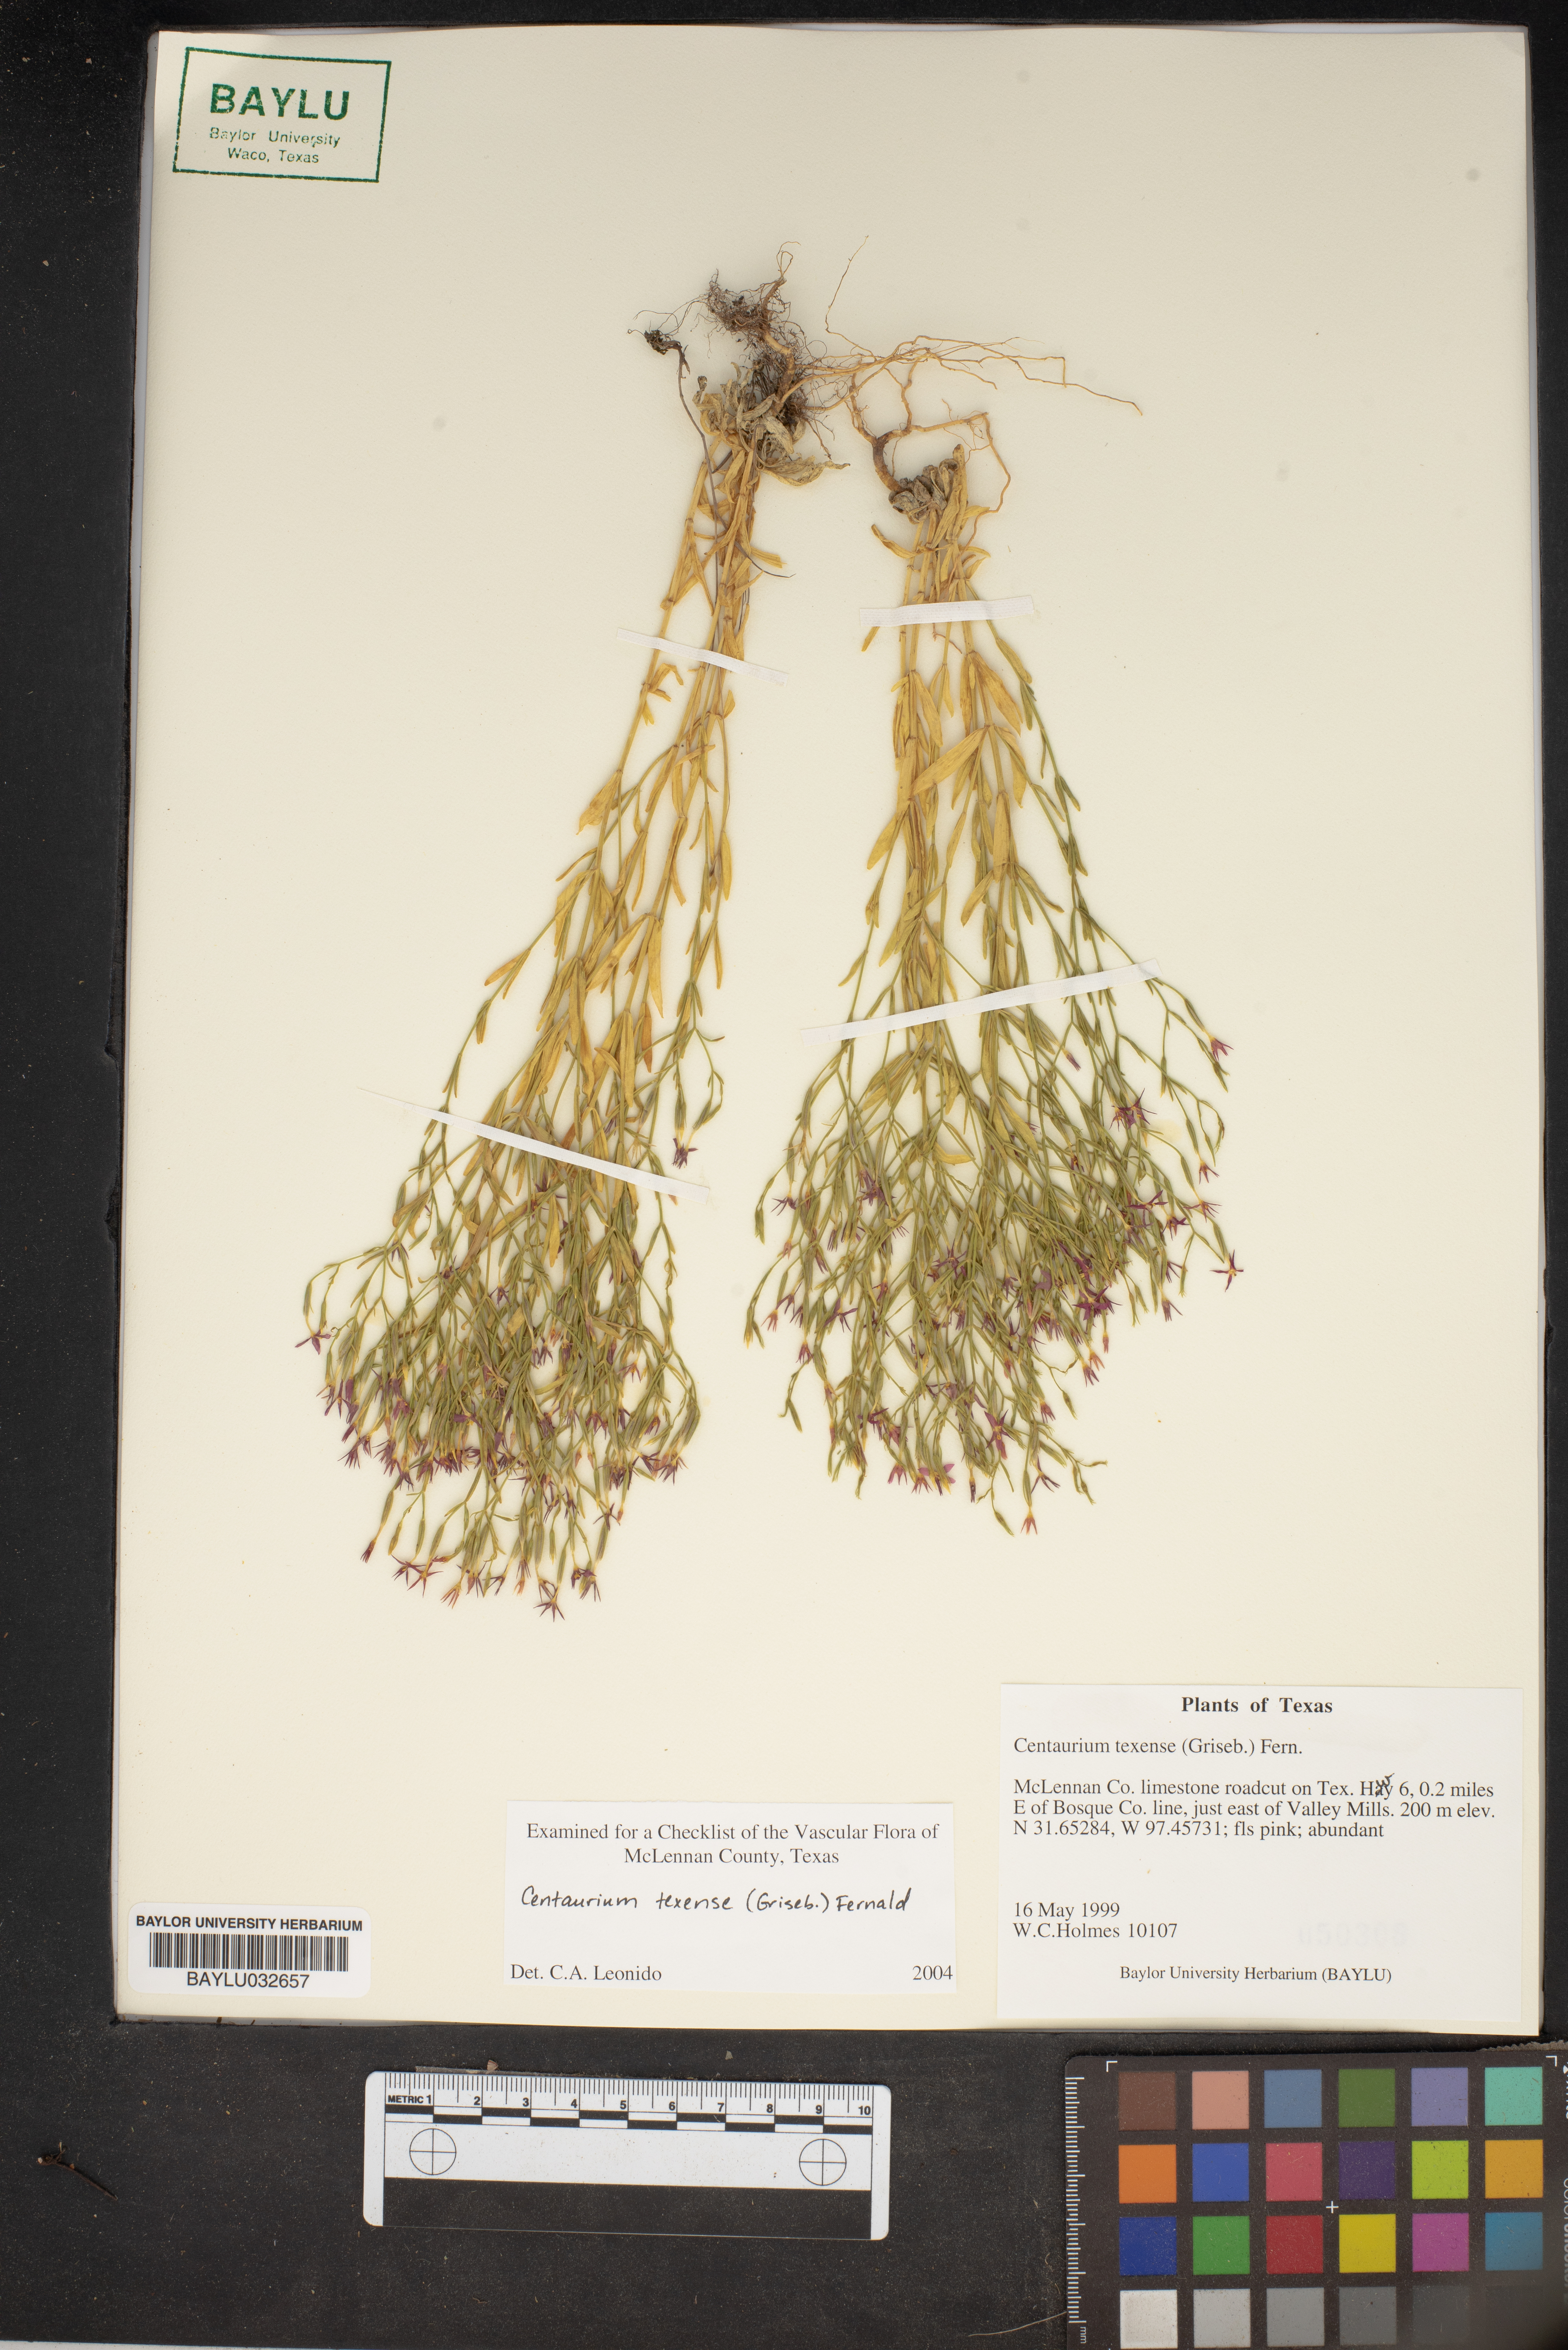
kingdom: Plantae
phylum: Tracheophyta
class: Magnoliopsida
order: Gentianales
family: Gentianaceae
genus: Zeltnera
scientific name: Zeltnera texensis
